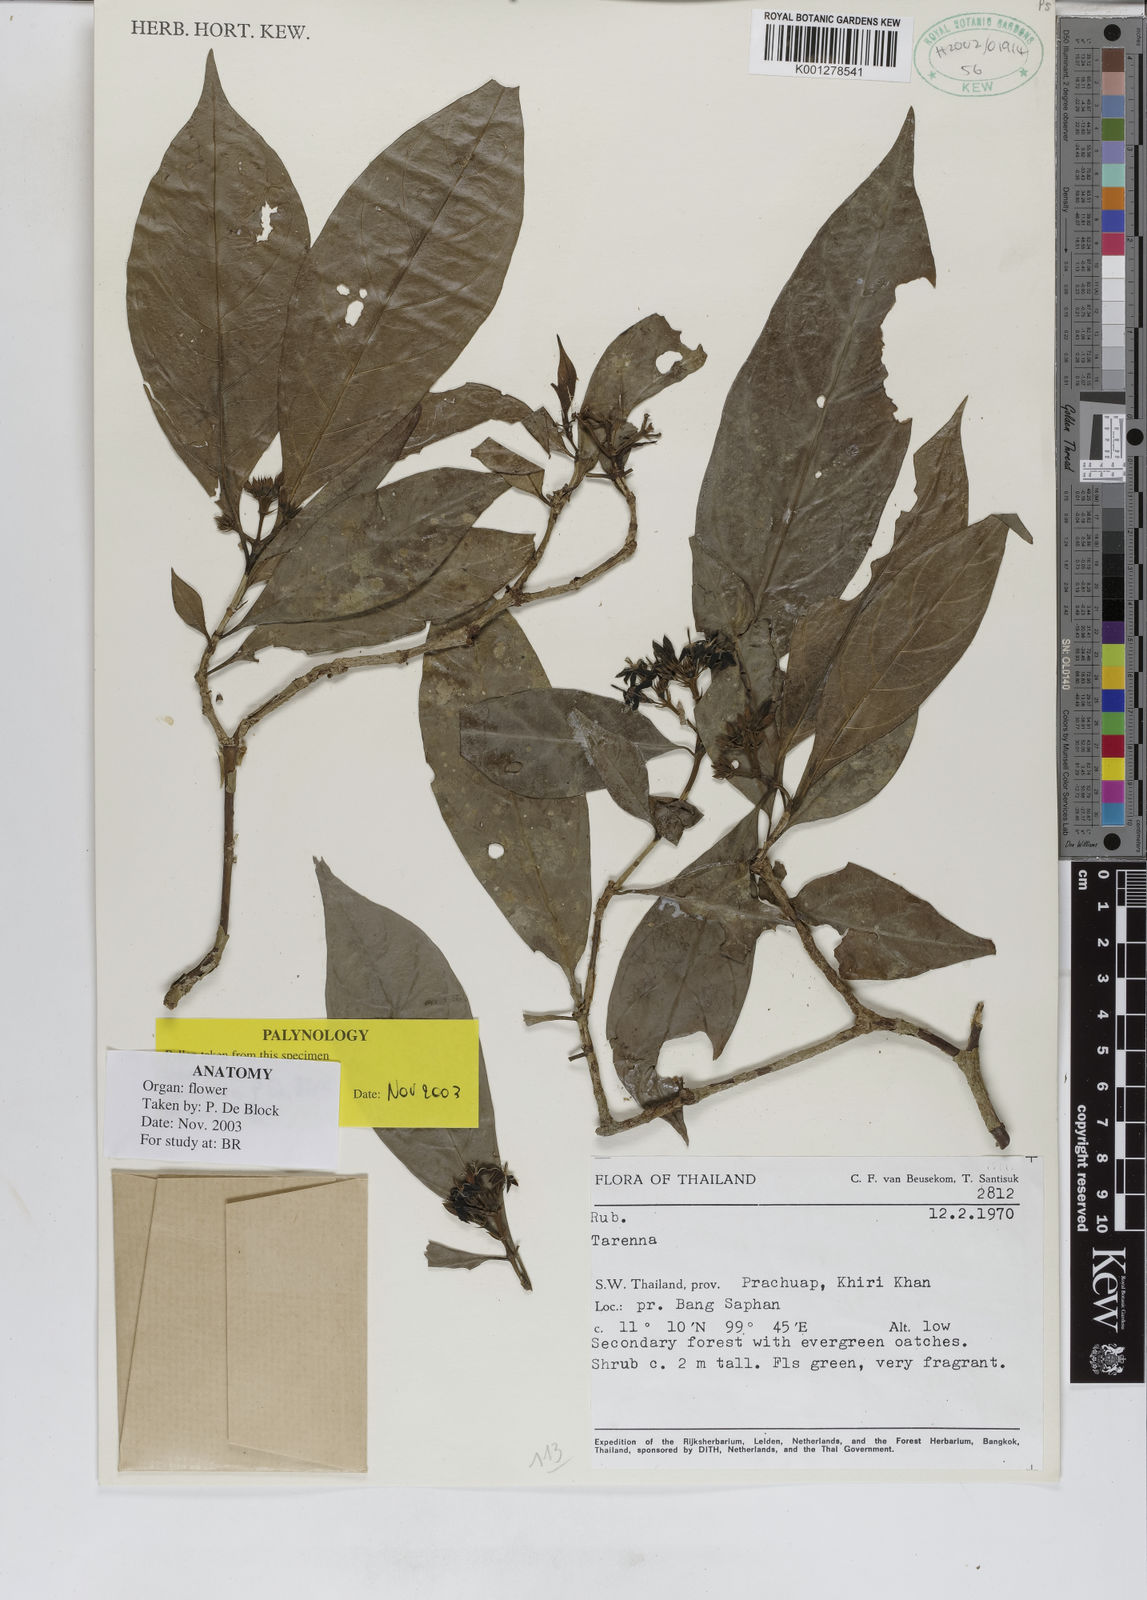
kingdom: Plantae
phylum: Tracheophyta
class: Magnoliopsida
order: Gentianales
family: Rubiaceae
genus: Tarenna
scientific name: Tarenna
